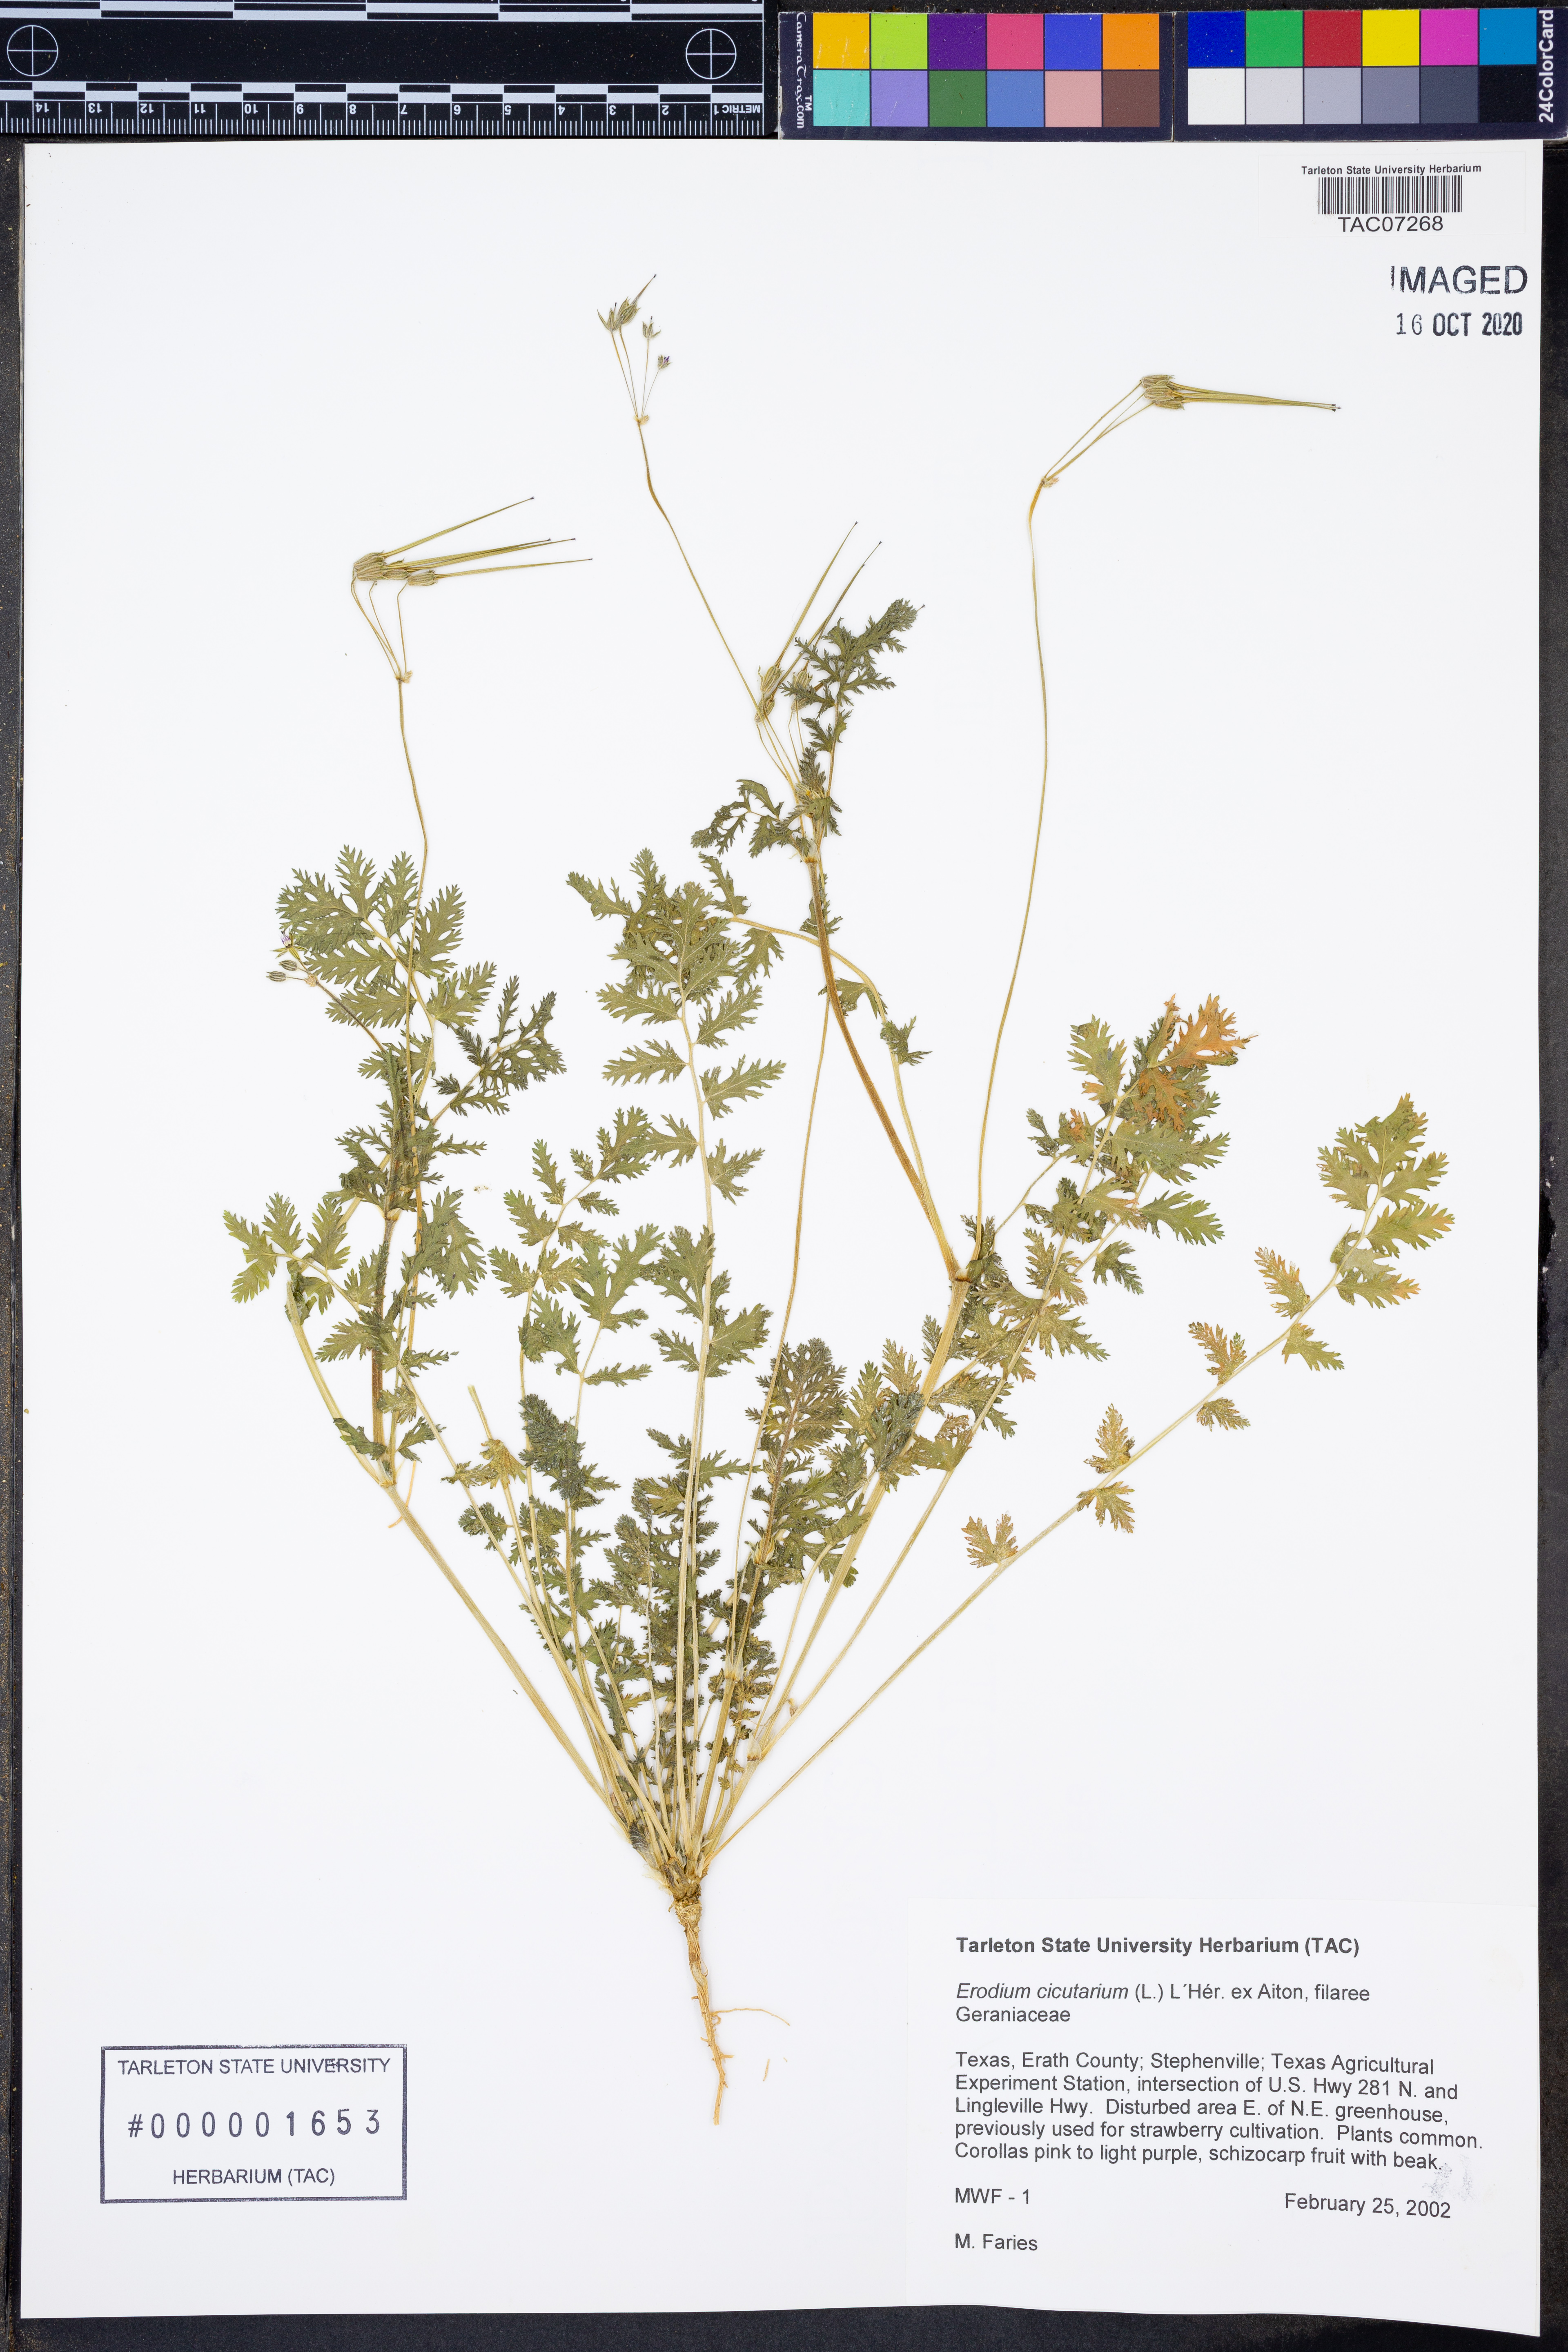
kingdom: Plantae
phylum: Tracheophyta
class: Magnoliopsida
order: Geraniales
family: Geraniaceae
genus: Erodium
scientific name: Erodium cicutarium
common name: Common stork's-bill
